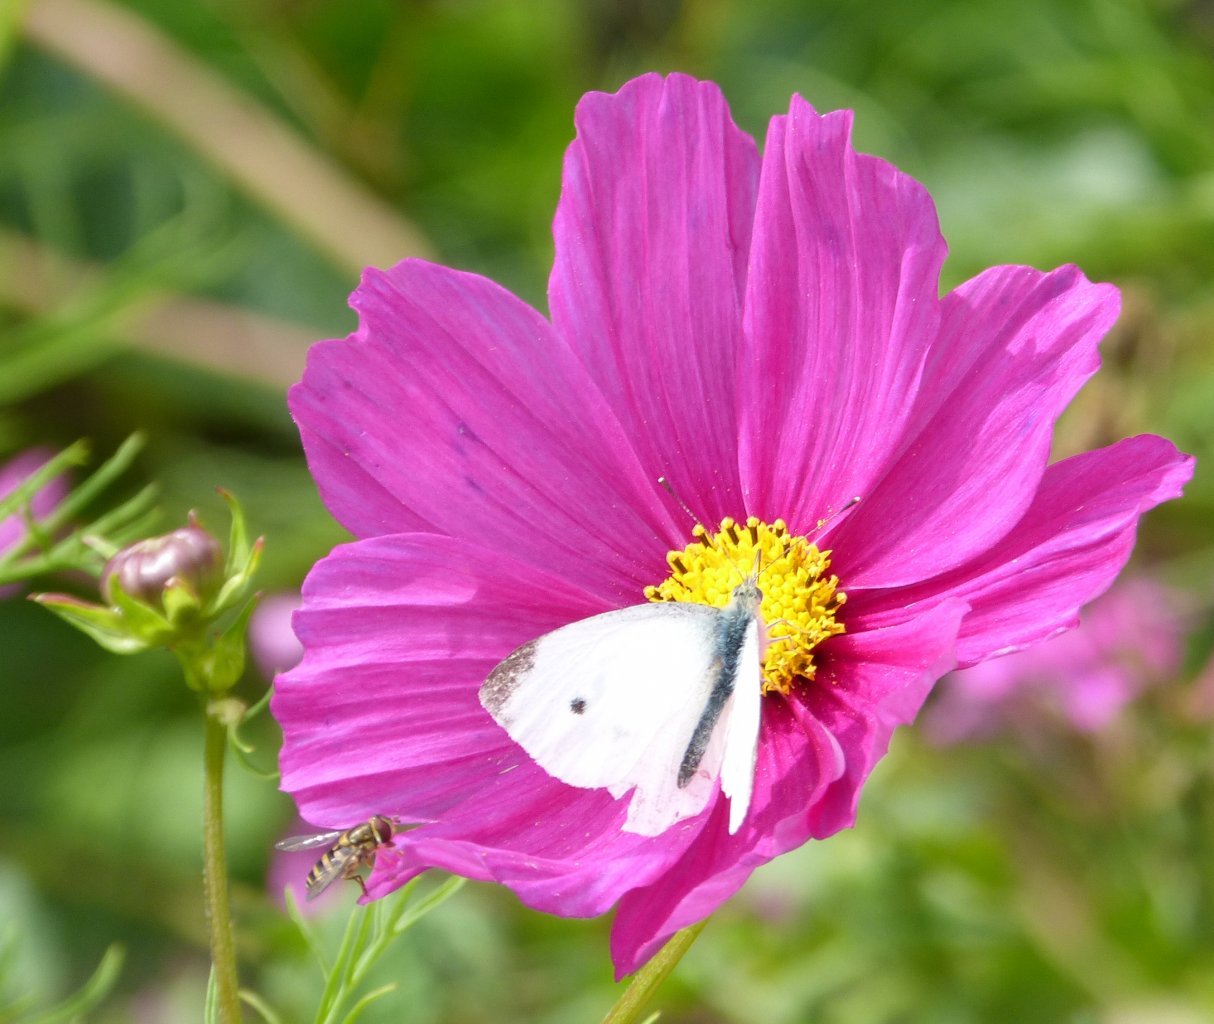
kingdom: Animalia
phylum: Arthropoda
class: Insecta
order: Lepidoptera
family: Pieridae
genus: Pieris
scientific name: Pieris rapae
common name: Cabbage White
